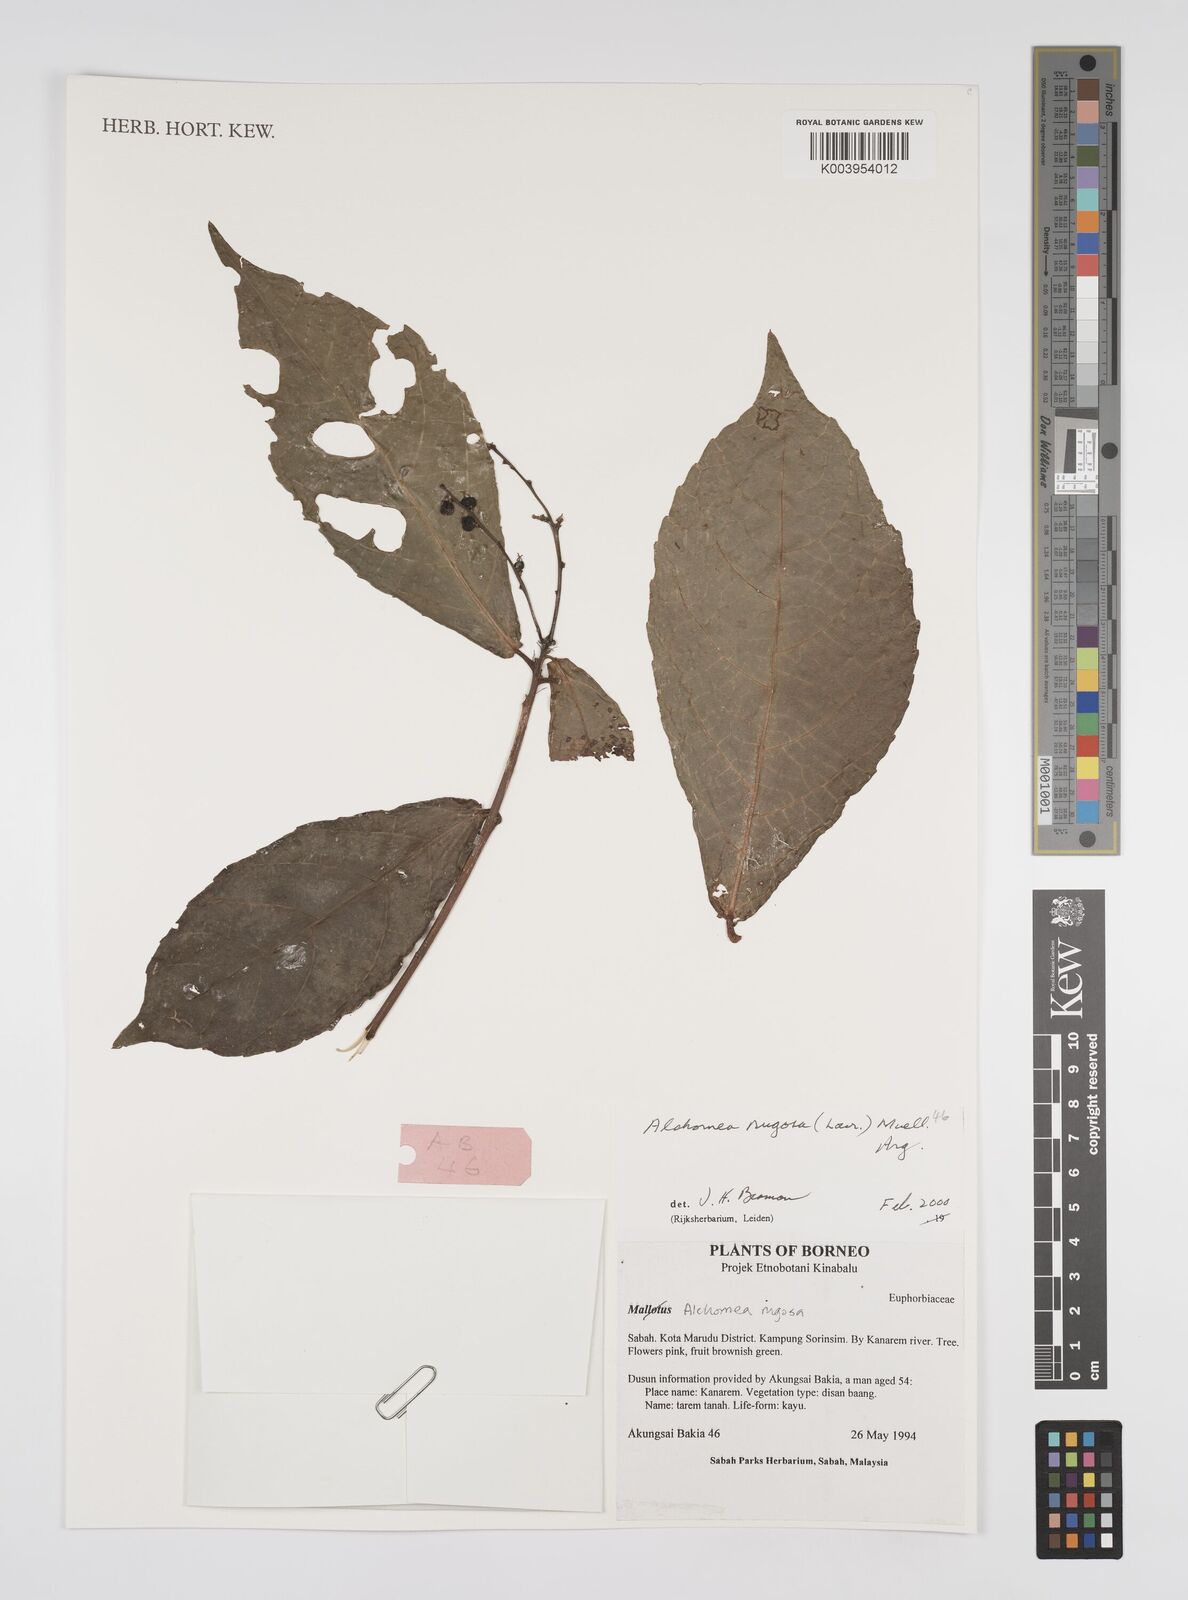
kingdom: Plantae
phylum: Tracheophyta
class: Magnoliopsida
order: Malpighiales
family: Euphorbiaceae
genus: Alchornea
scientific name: Alchornea rugosa
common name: Alchorntree
